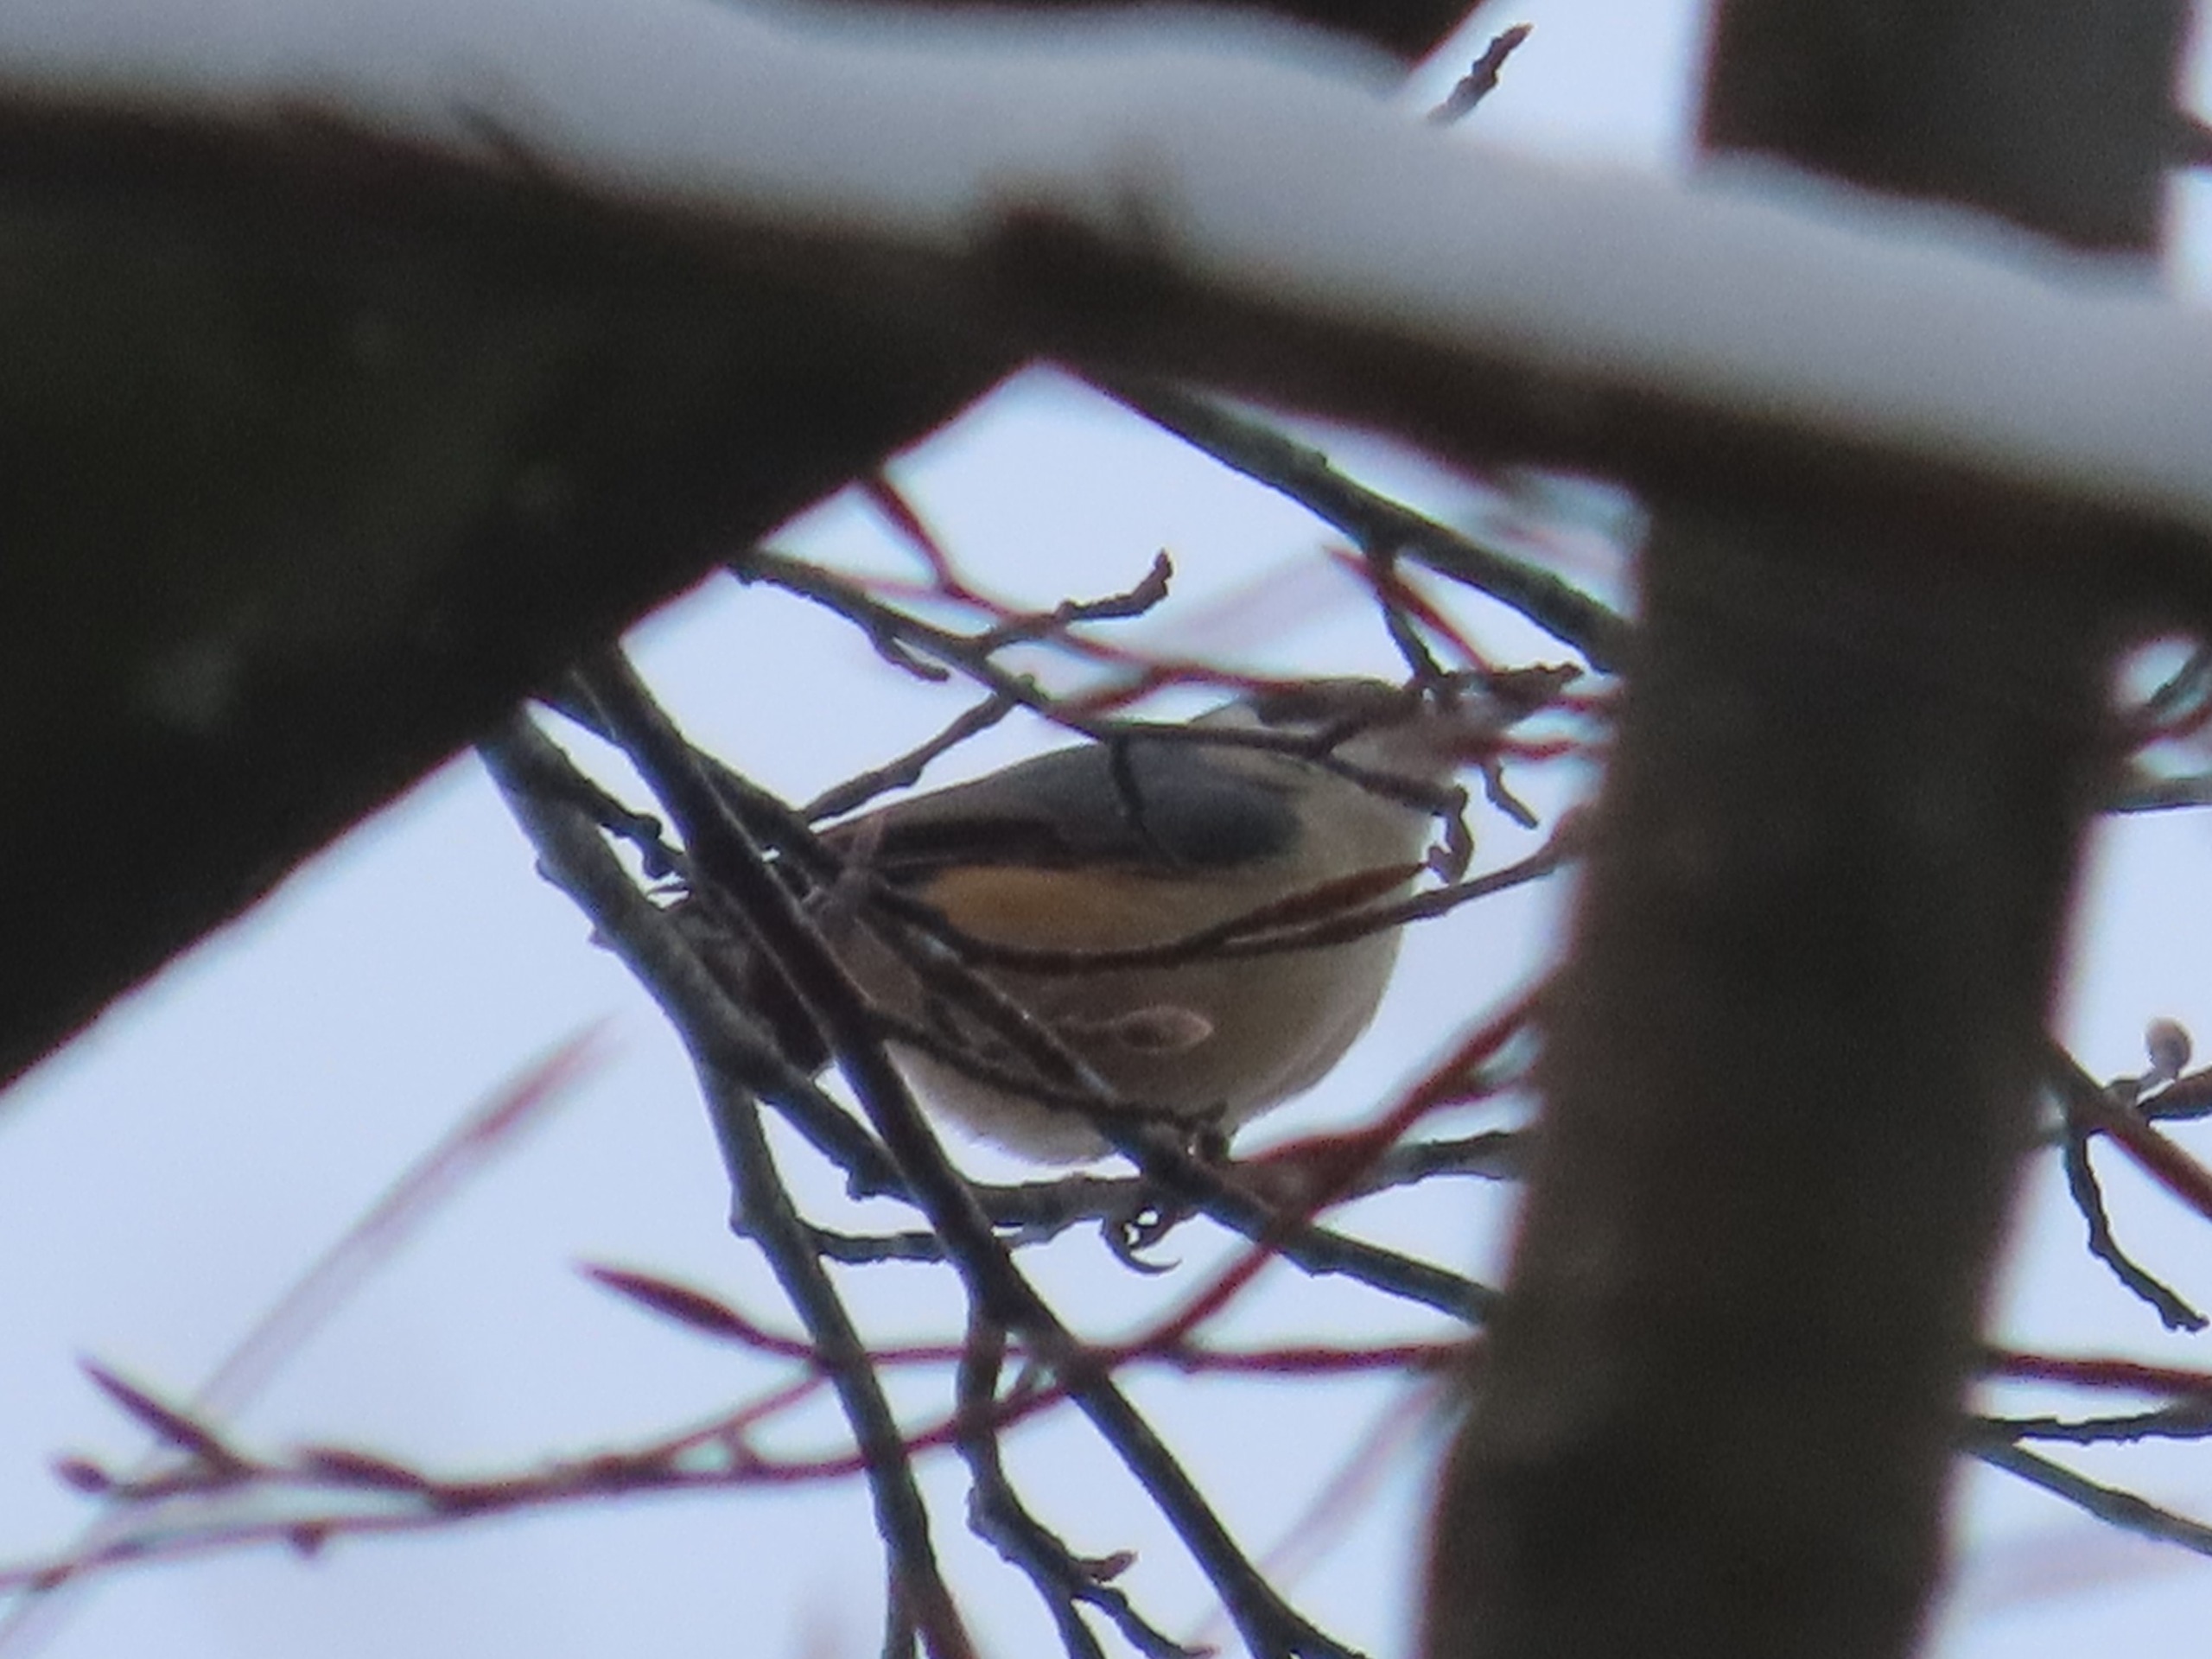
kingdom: Animalia
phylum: Chordata
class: Aves
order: Passeriformes
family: Sittidae
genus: Sitta
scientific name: Sitta europaea
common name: Spætmejse
